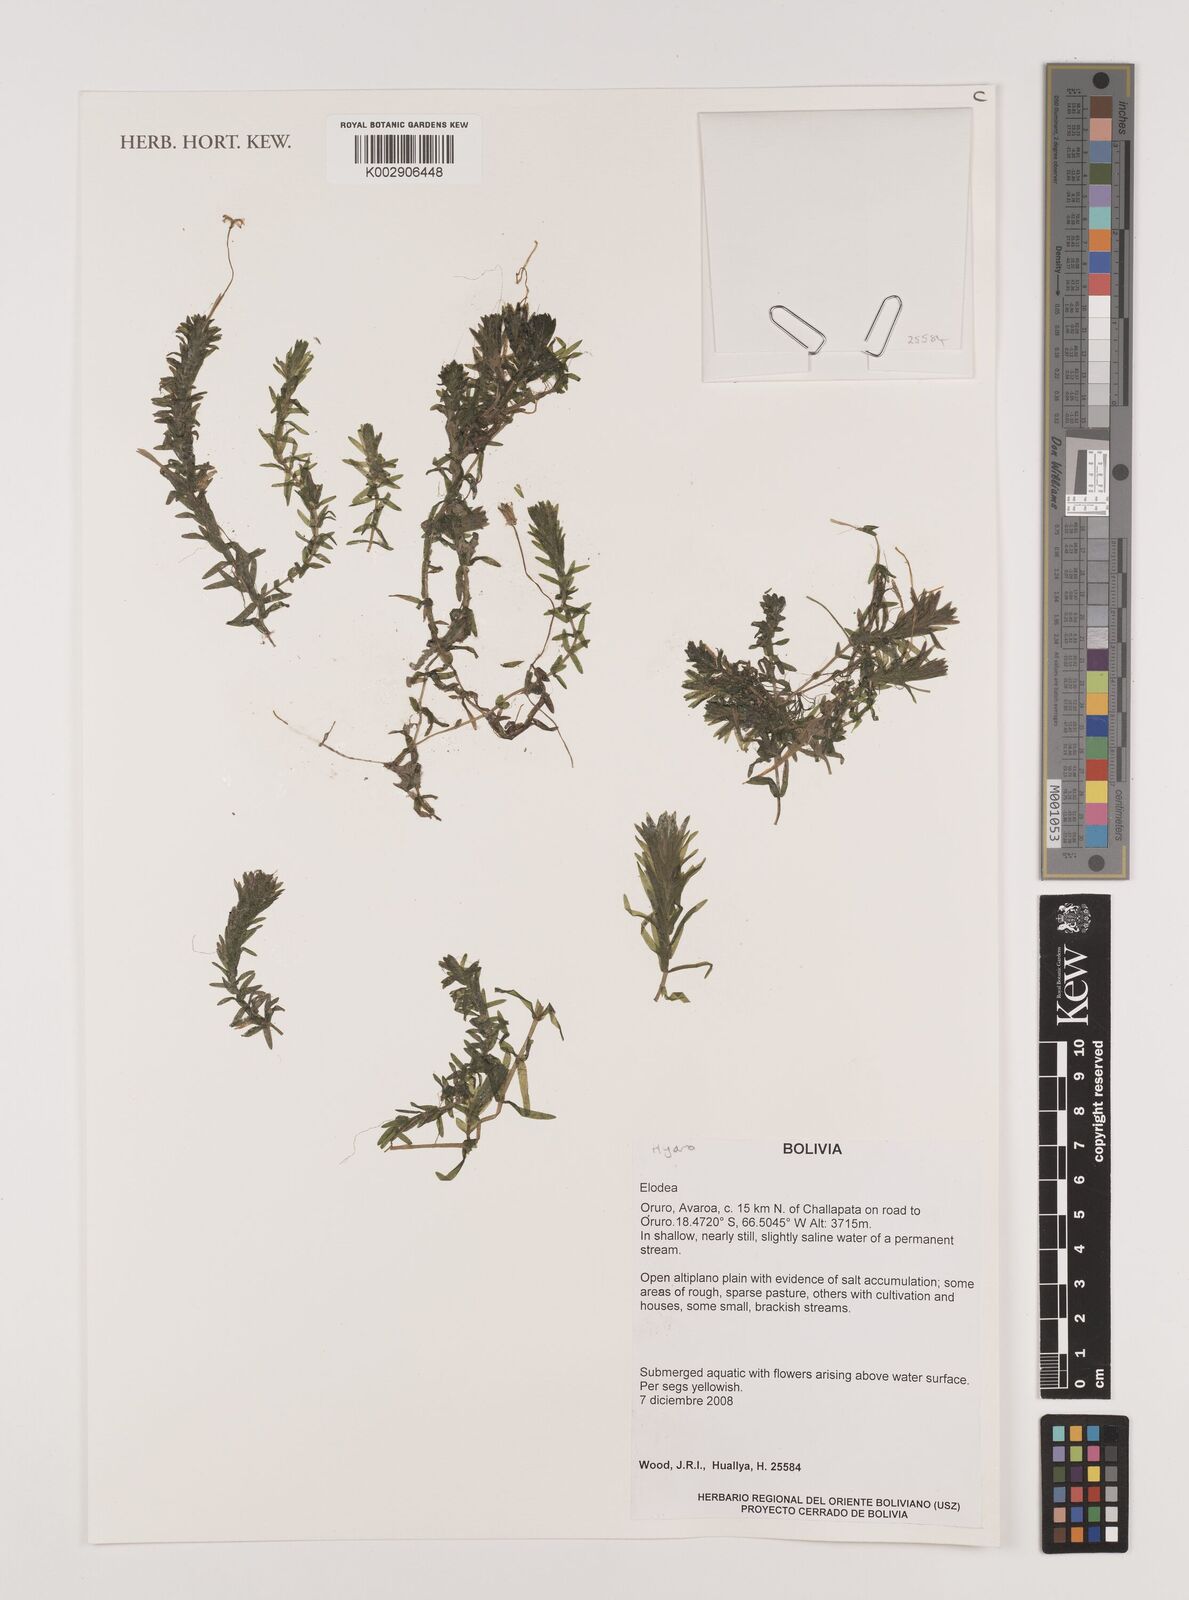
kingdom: Plantae
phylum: Tracheophyta
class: Liliopsida
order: Alismatales
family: Hydrocharitaceae
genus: Elodea
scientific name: Elodea potamogeton
